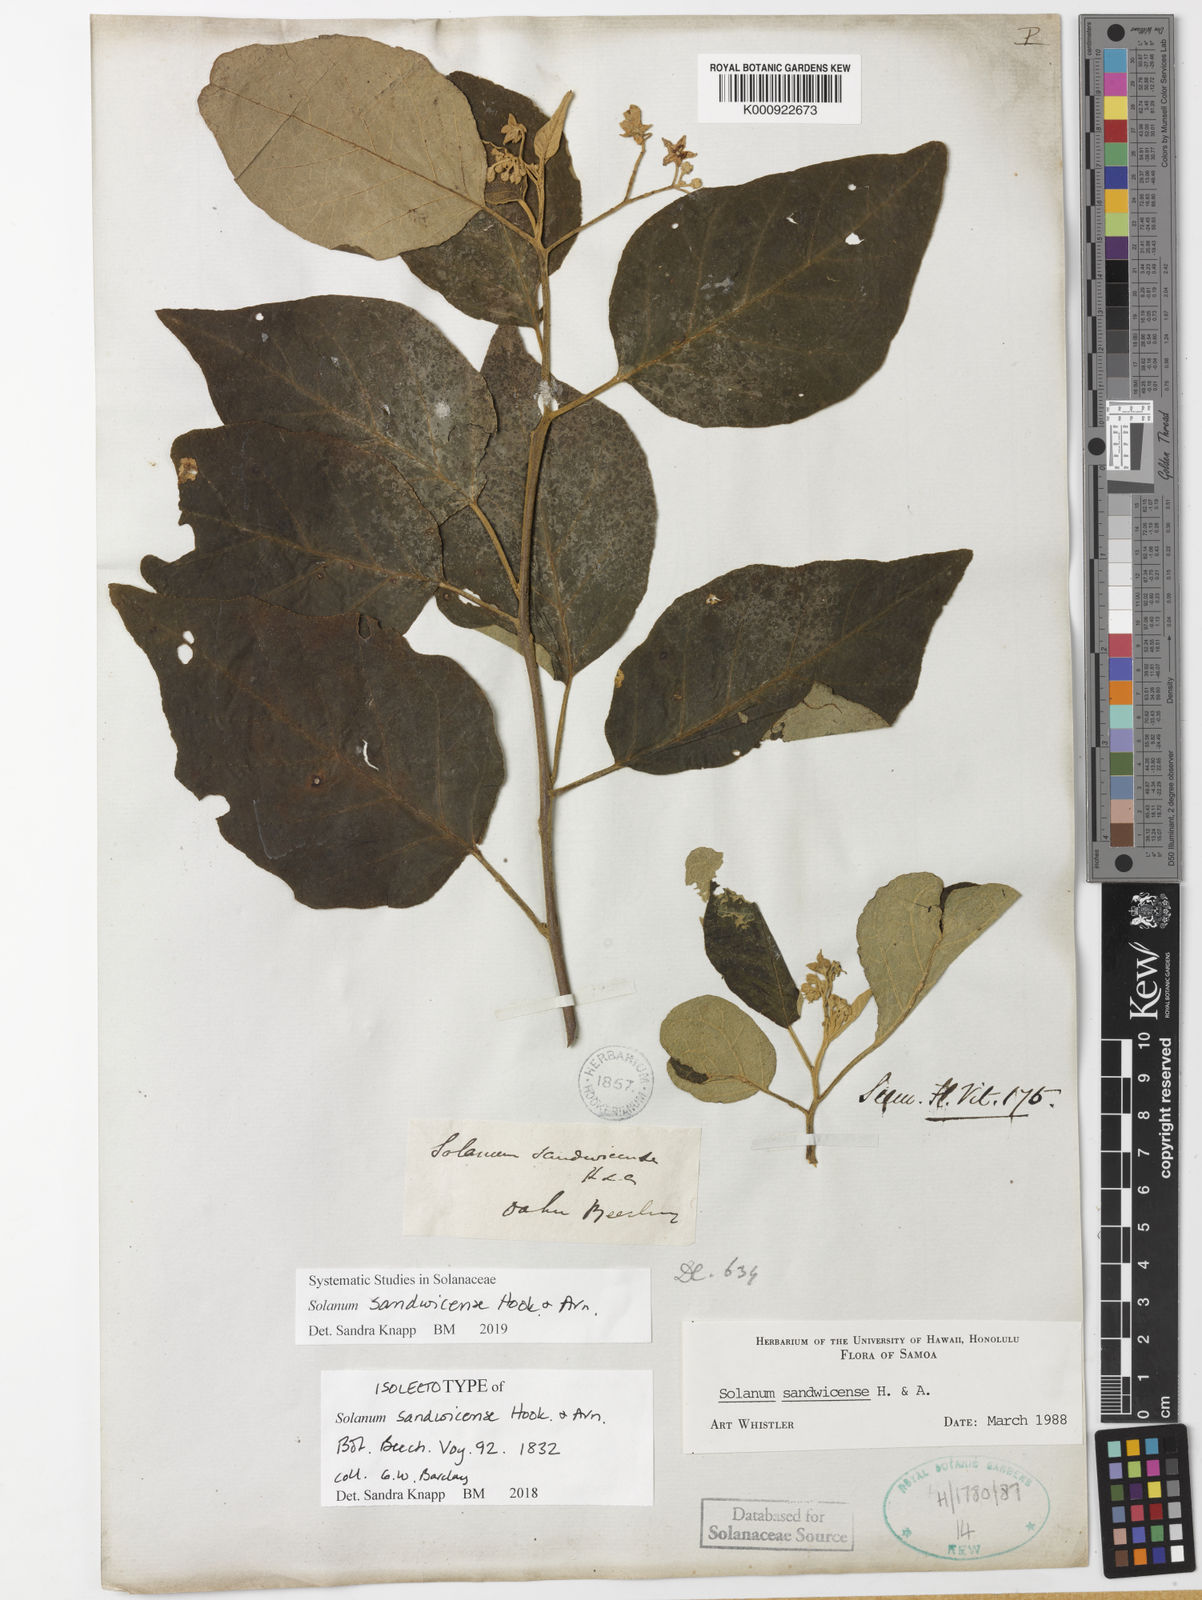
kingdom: Plantae
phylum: Tracheophyta
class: Magnoliopsida
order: Solanales
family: Solanaceae
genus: Solanum
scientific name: Solanum sandwicense
